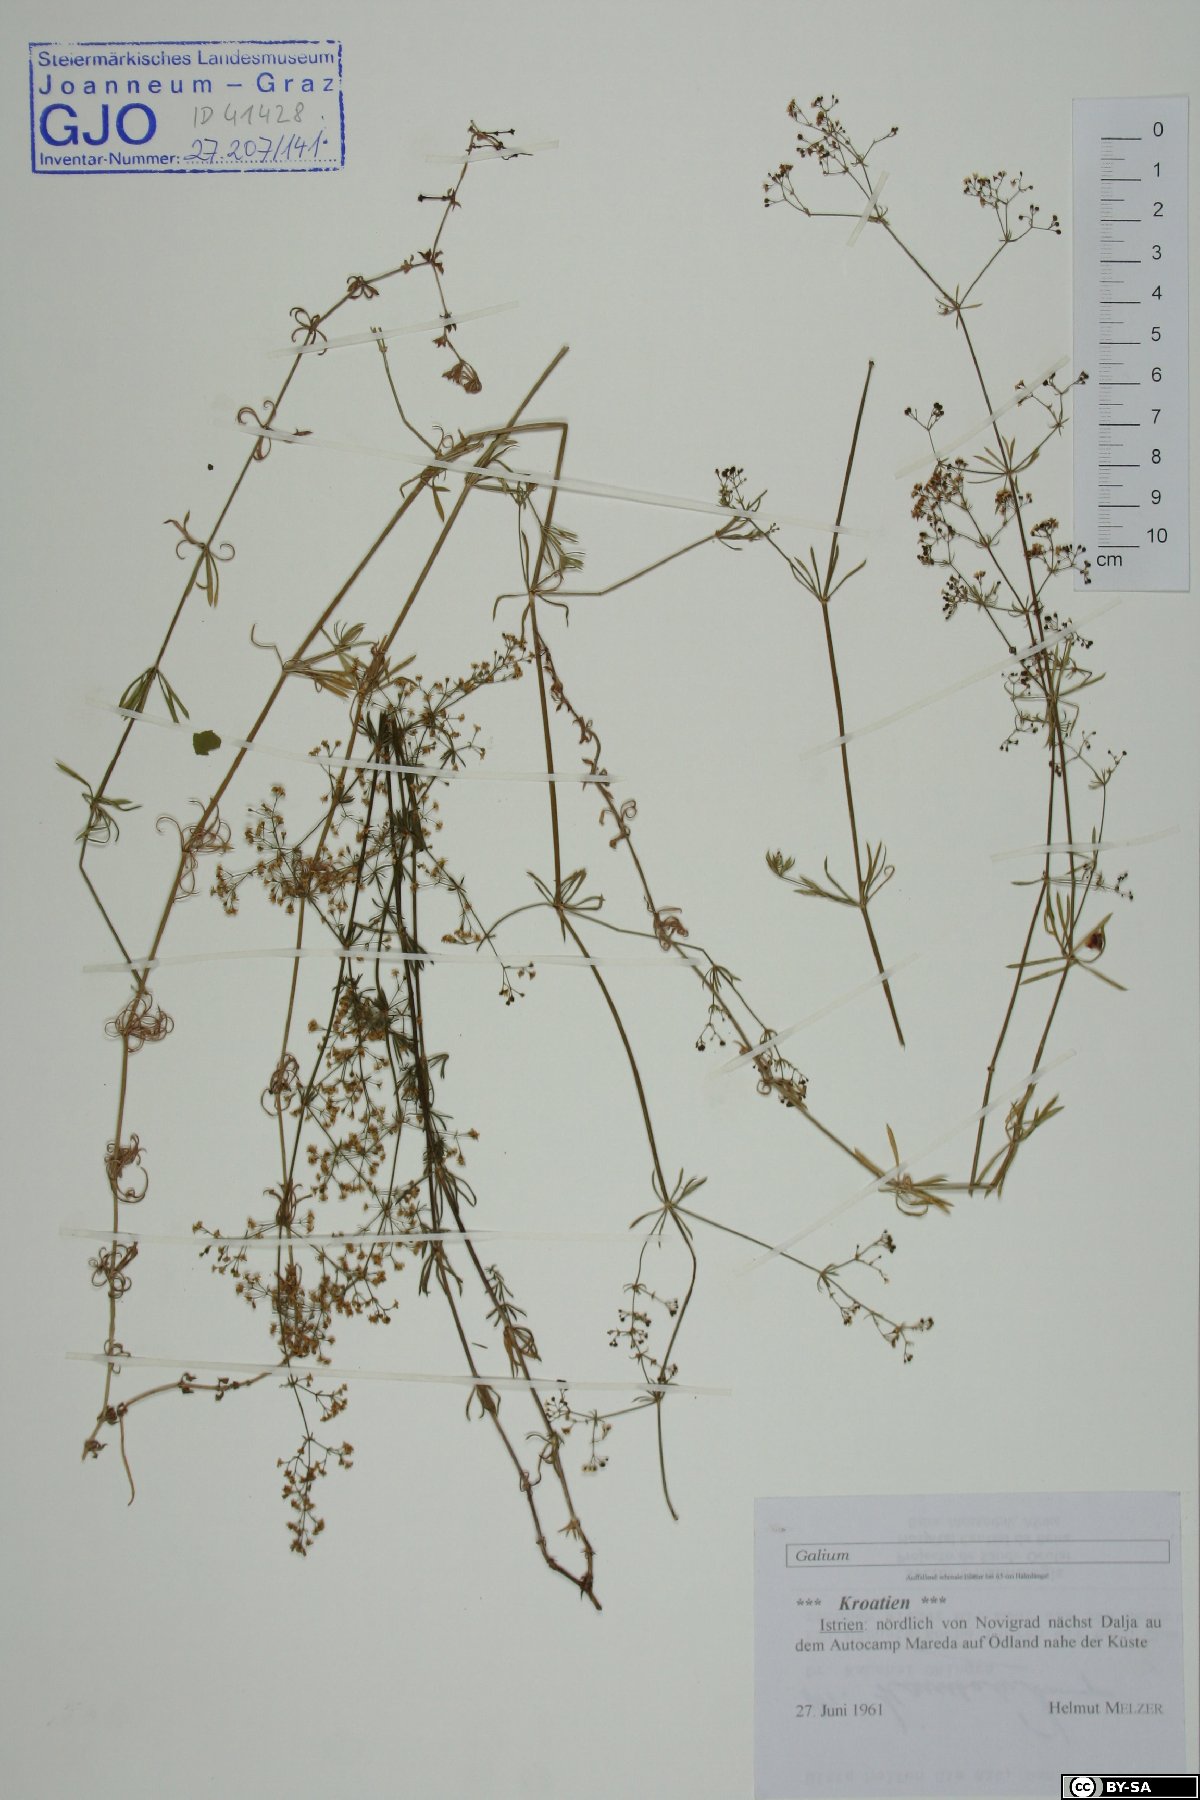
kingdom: Plantae
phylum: Tracheophyta
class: Magnoliopsida
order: Gentianales
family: Rubiaceae
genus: Galium
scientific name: Galium
